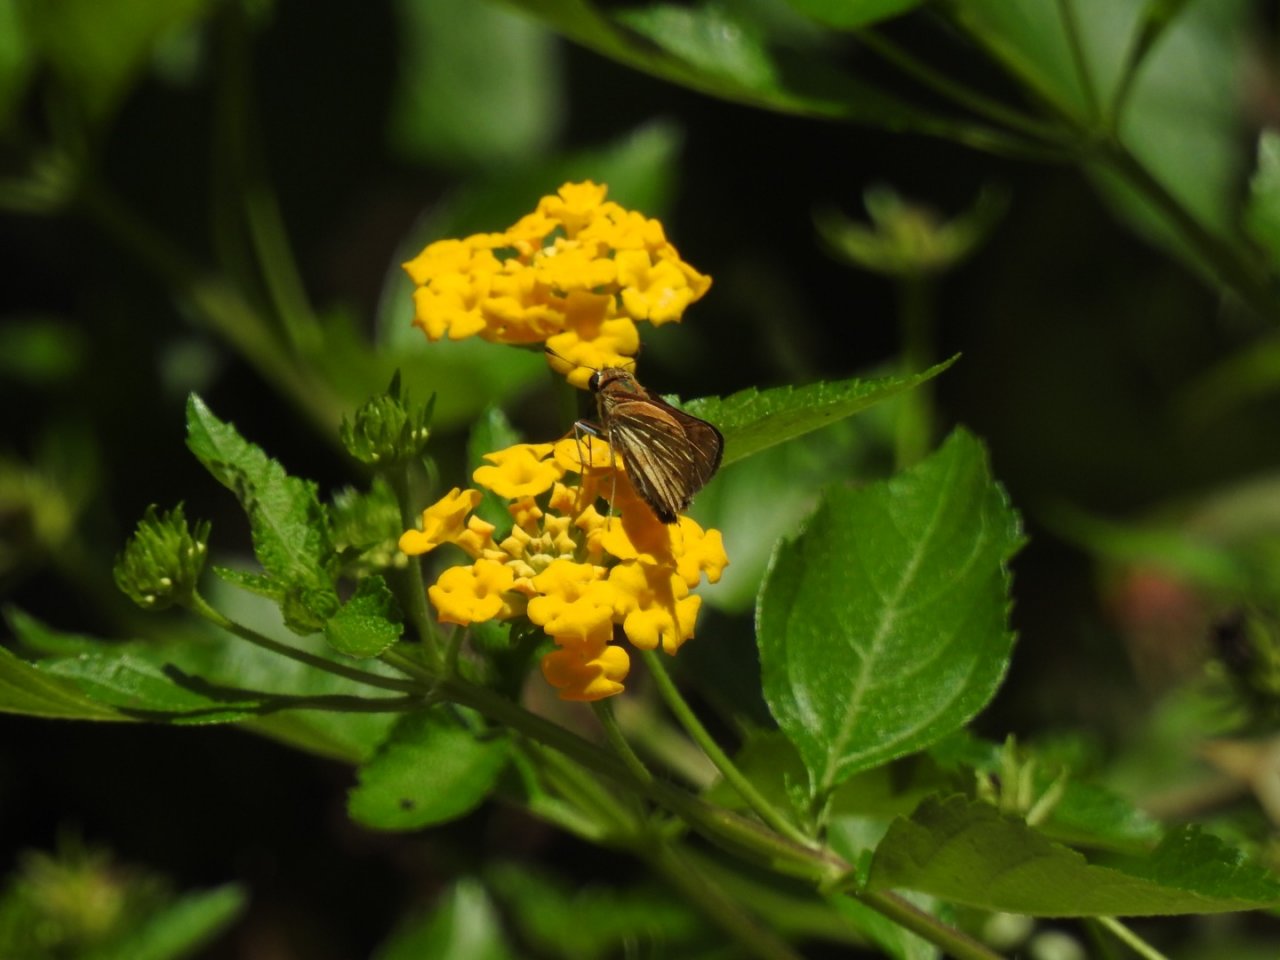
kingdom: Animalia
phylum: Arthropoda
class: Insecta
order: Lepidoptera
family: Hesperiidae
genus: Hylephila
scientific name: Hylephila phyleus
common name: Fiery Skipper
